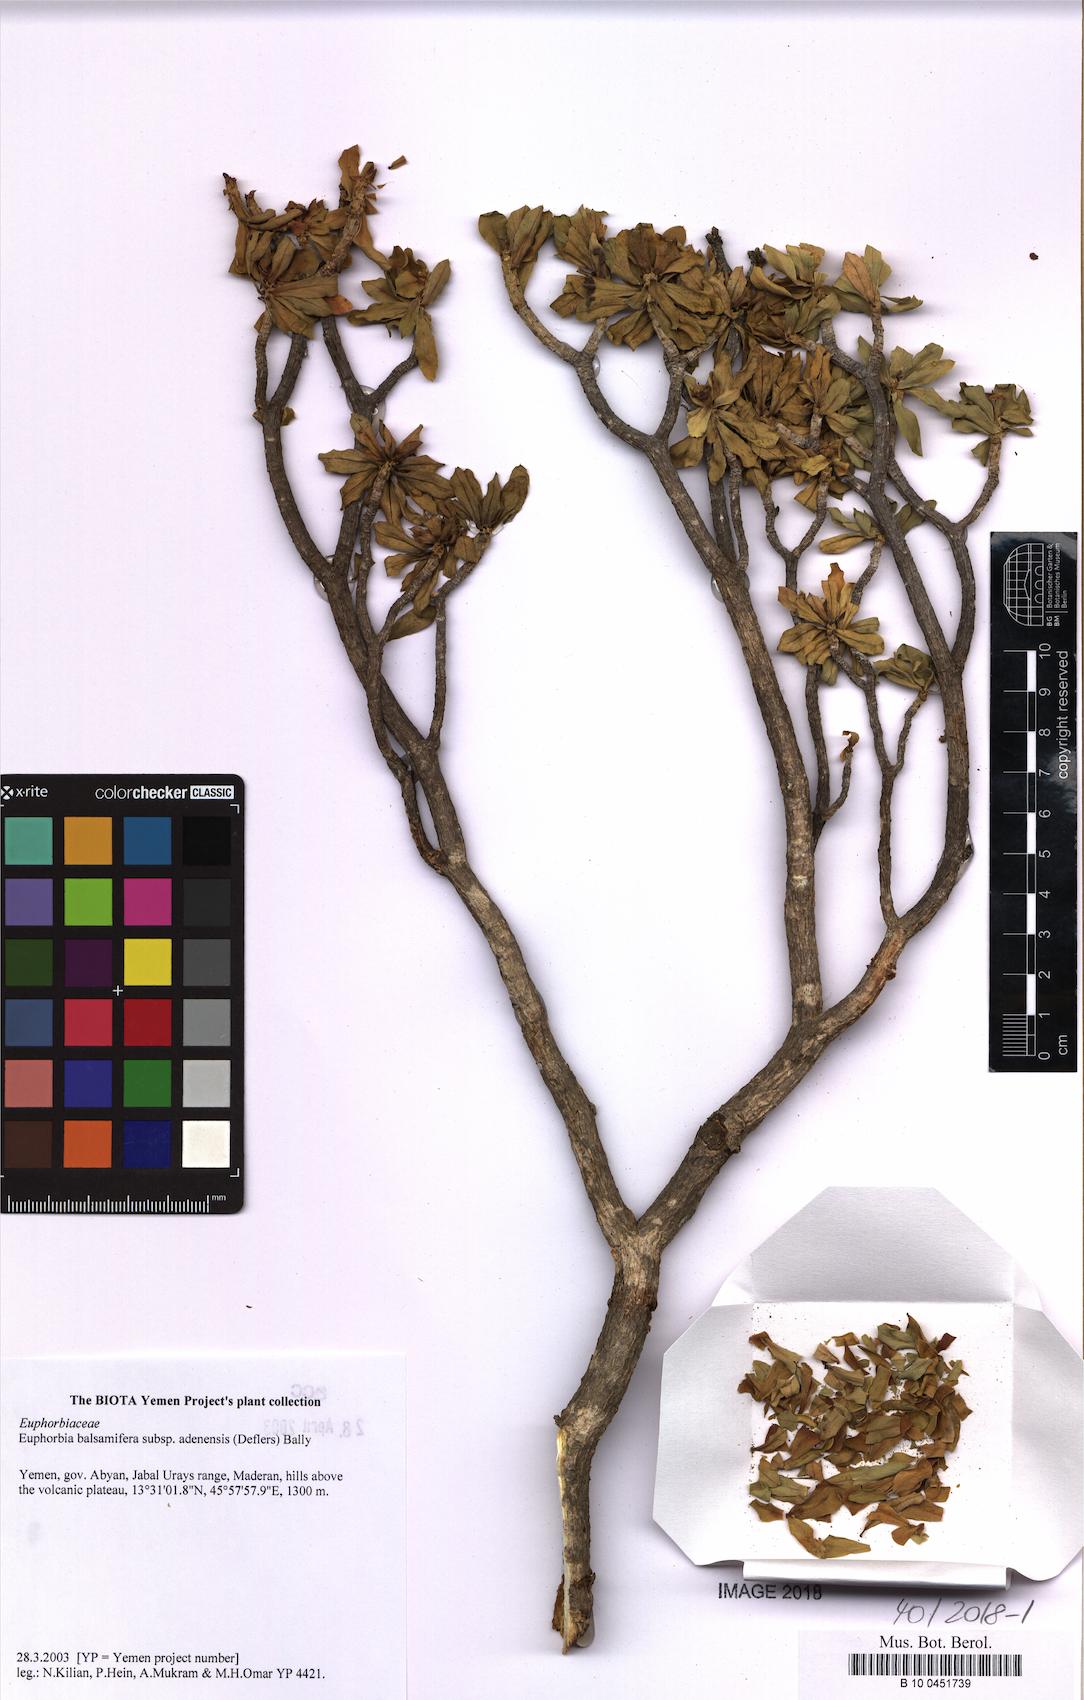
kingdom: Plantae
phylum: Tracheophyta
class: Magnoliopsida
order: Malpighiales
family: Euphorbiaceae
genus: Euphorbia
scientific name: Euphorbia adenensis
